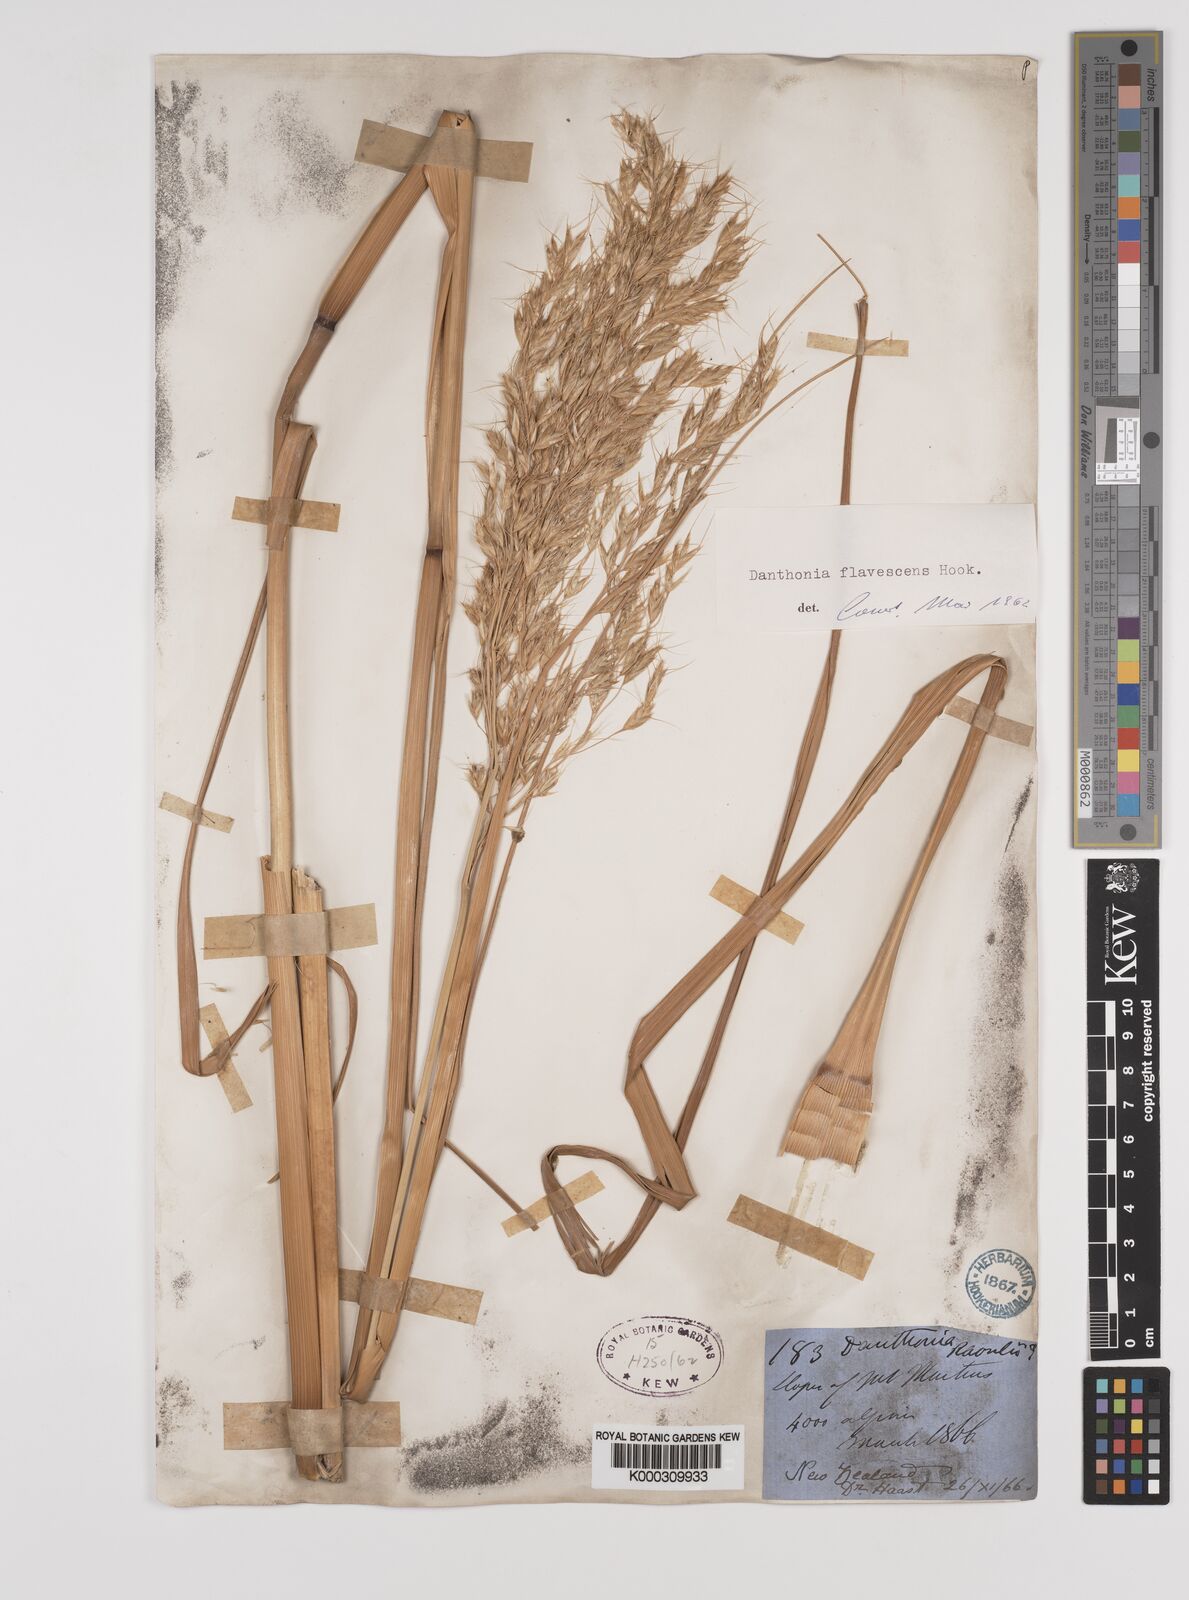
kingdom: Plantae
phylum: Tracheophyta
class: Liliopsida
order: Poales
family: Poaceae
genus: Chionochloa
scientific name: Chionochloa rigida
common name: Narrow leaved snow tussock
